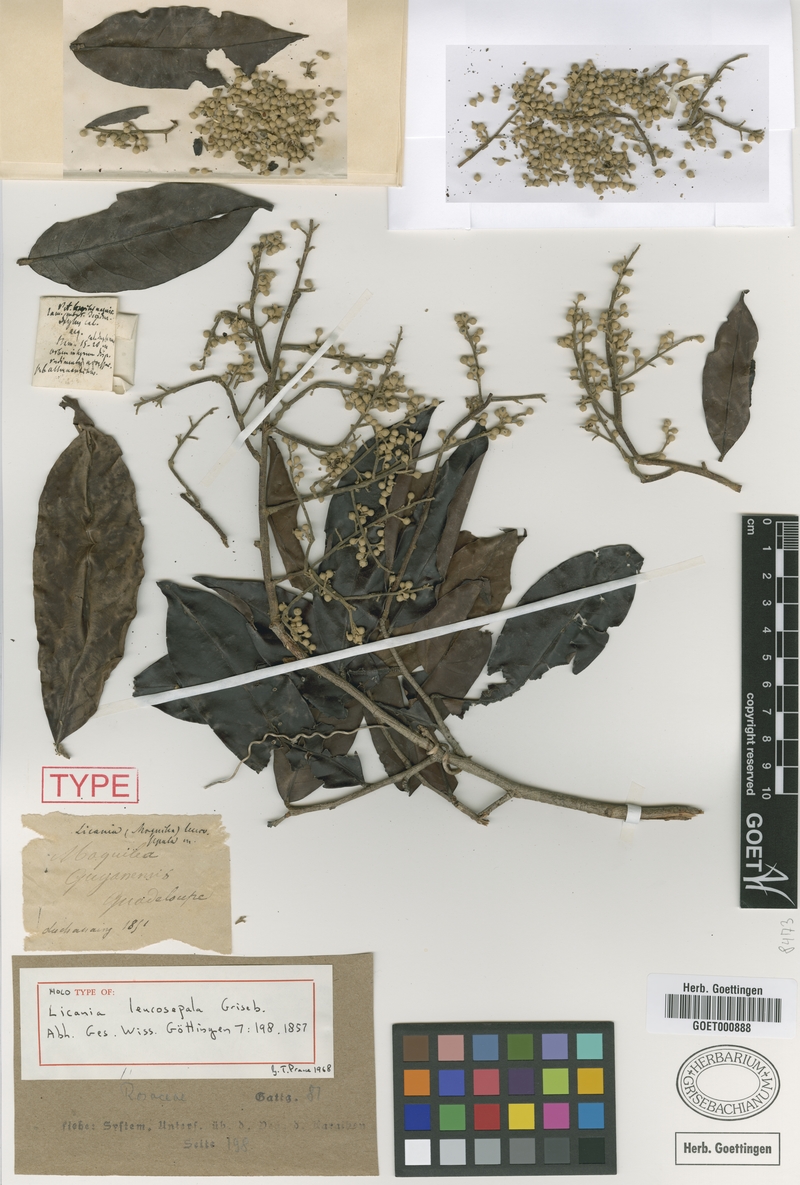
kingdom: Plantae
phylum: Tracheophyta
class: Magnoliopsida
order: Malpighiales
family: Chrysobalanaceae
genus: Moquilea
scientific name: Moquilea leucosepala
